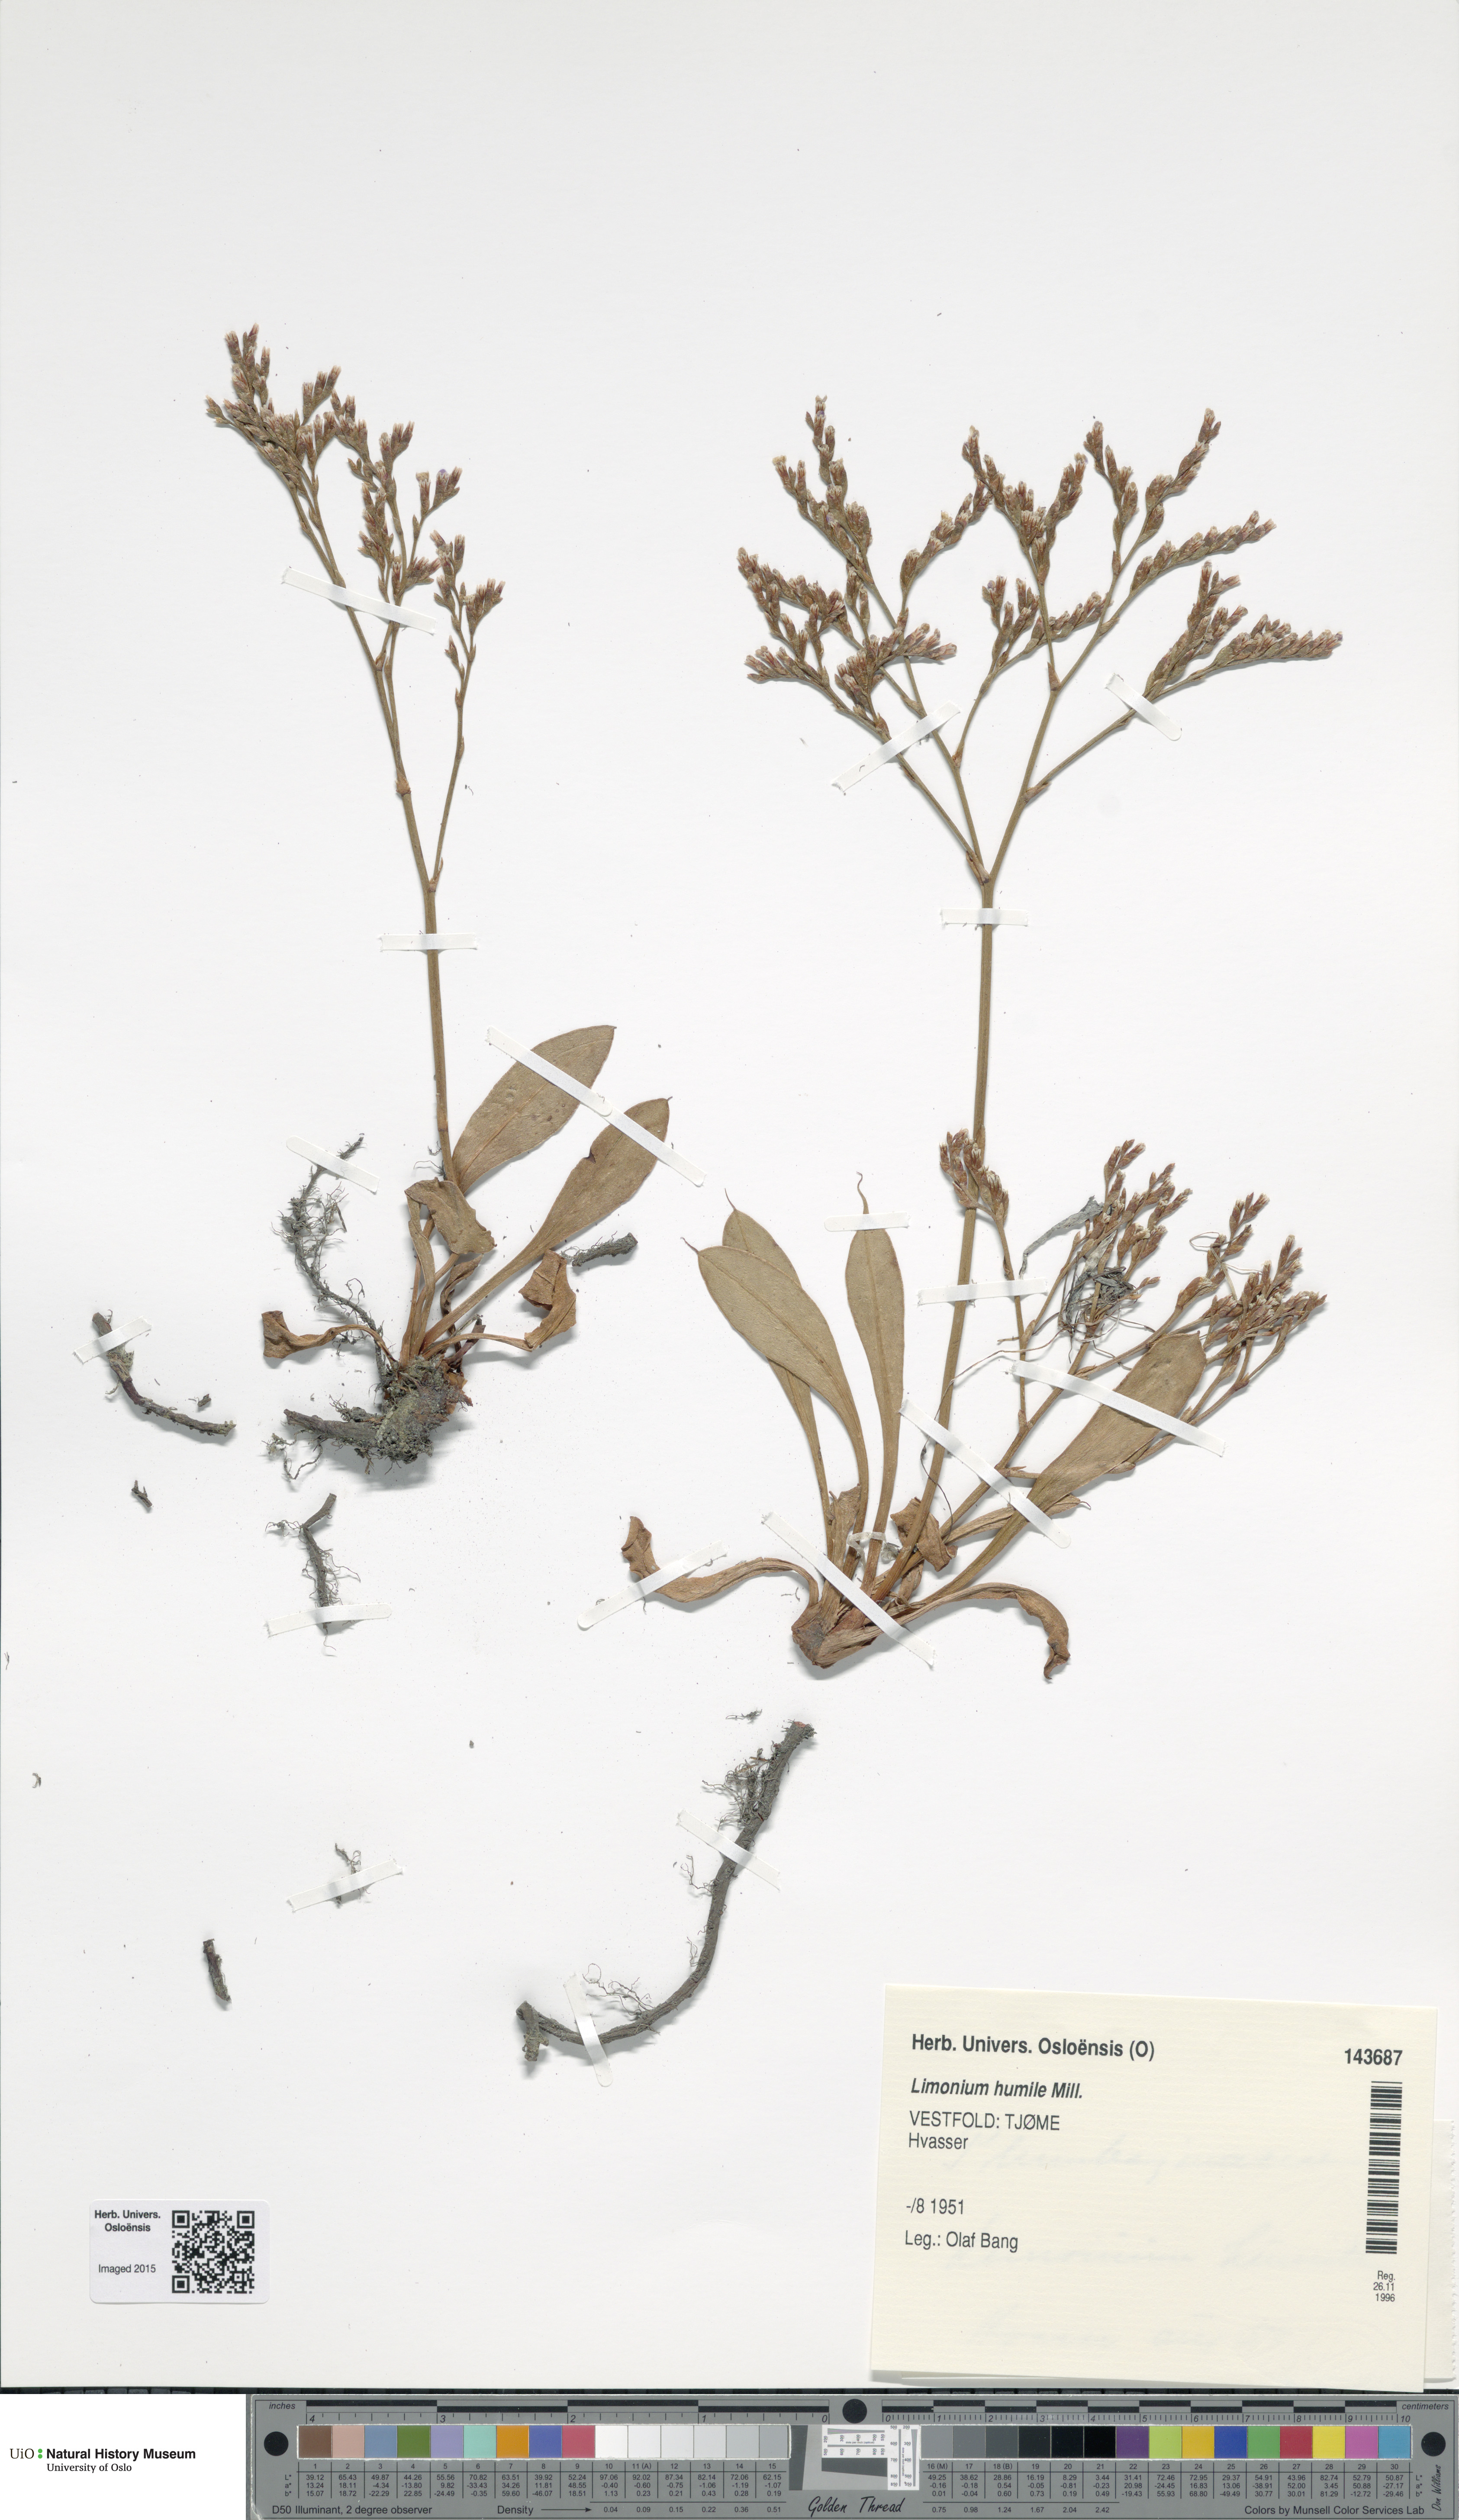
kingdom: Plantae
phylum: Tracheophyta
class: Magnoliopsida
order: Caryophyllales
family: Plumbaginaceae
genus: Limonium
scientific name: Limonium humile
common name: Lax-flowered sea-lavender
